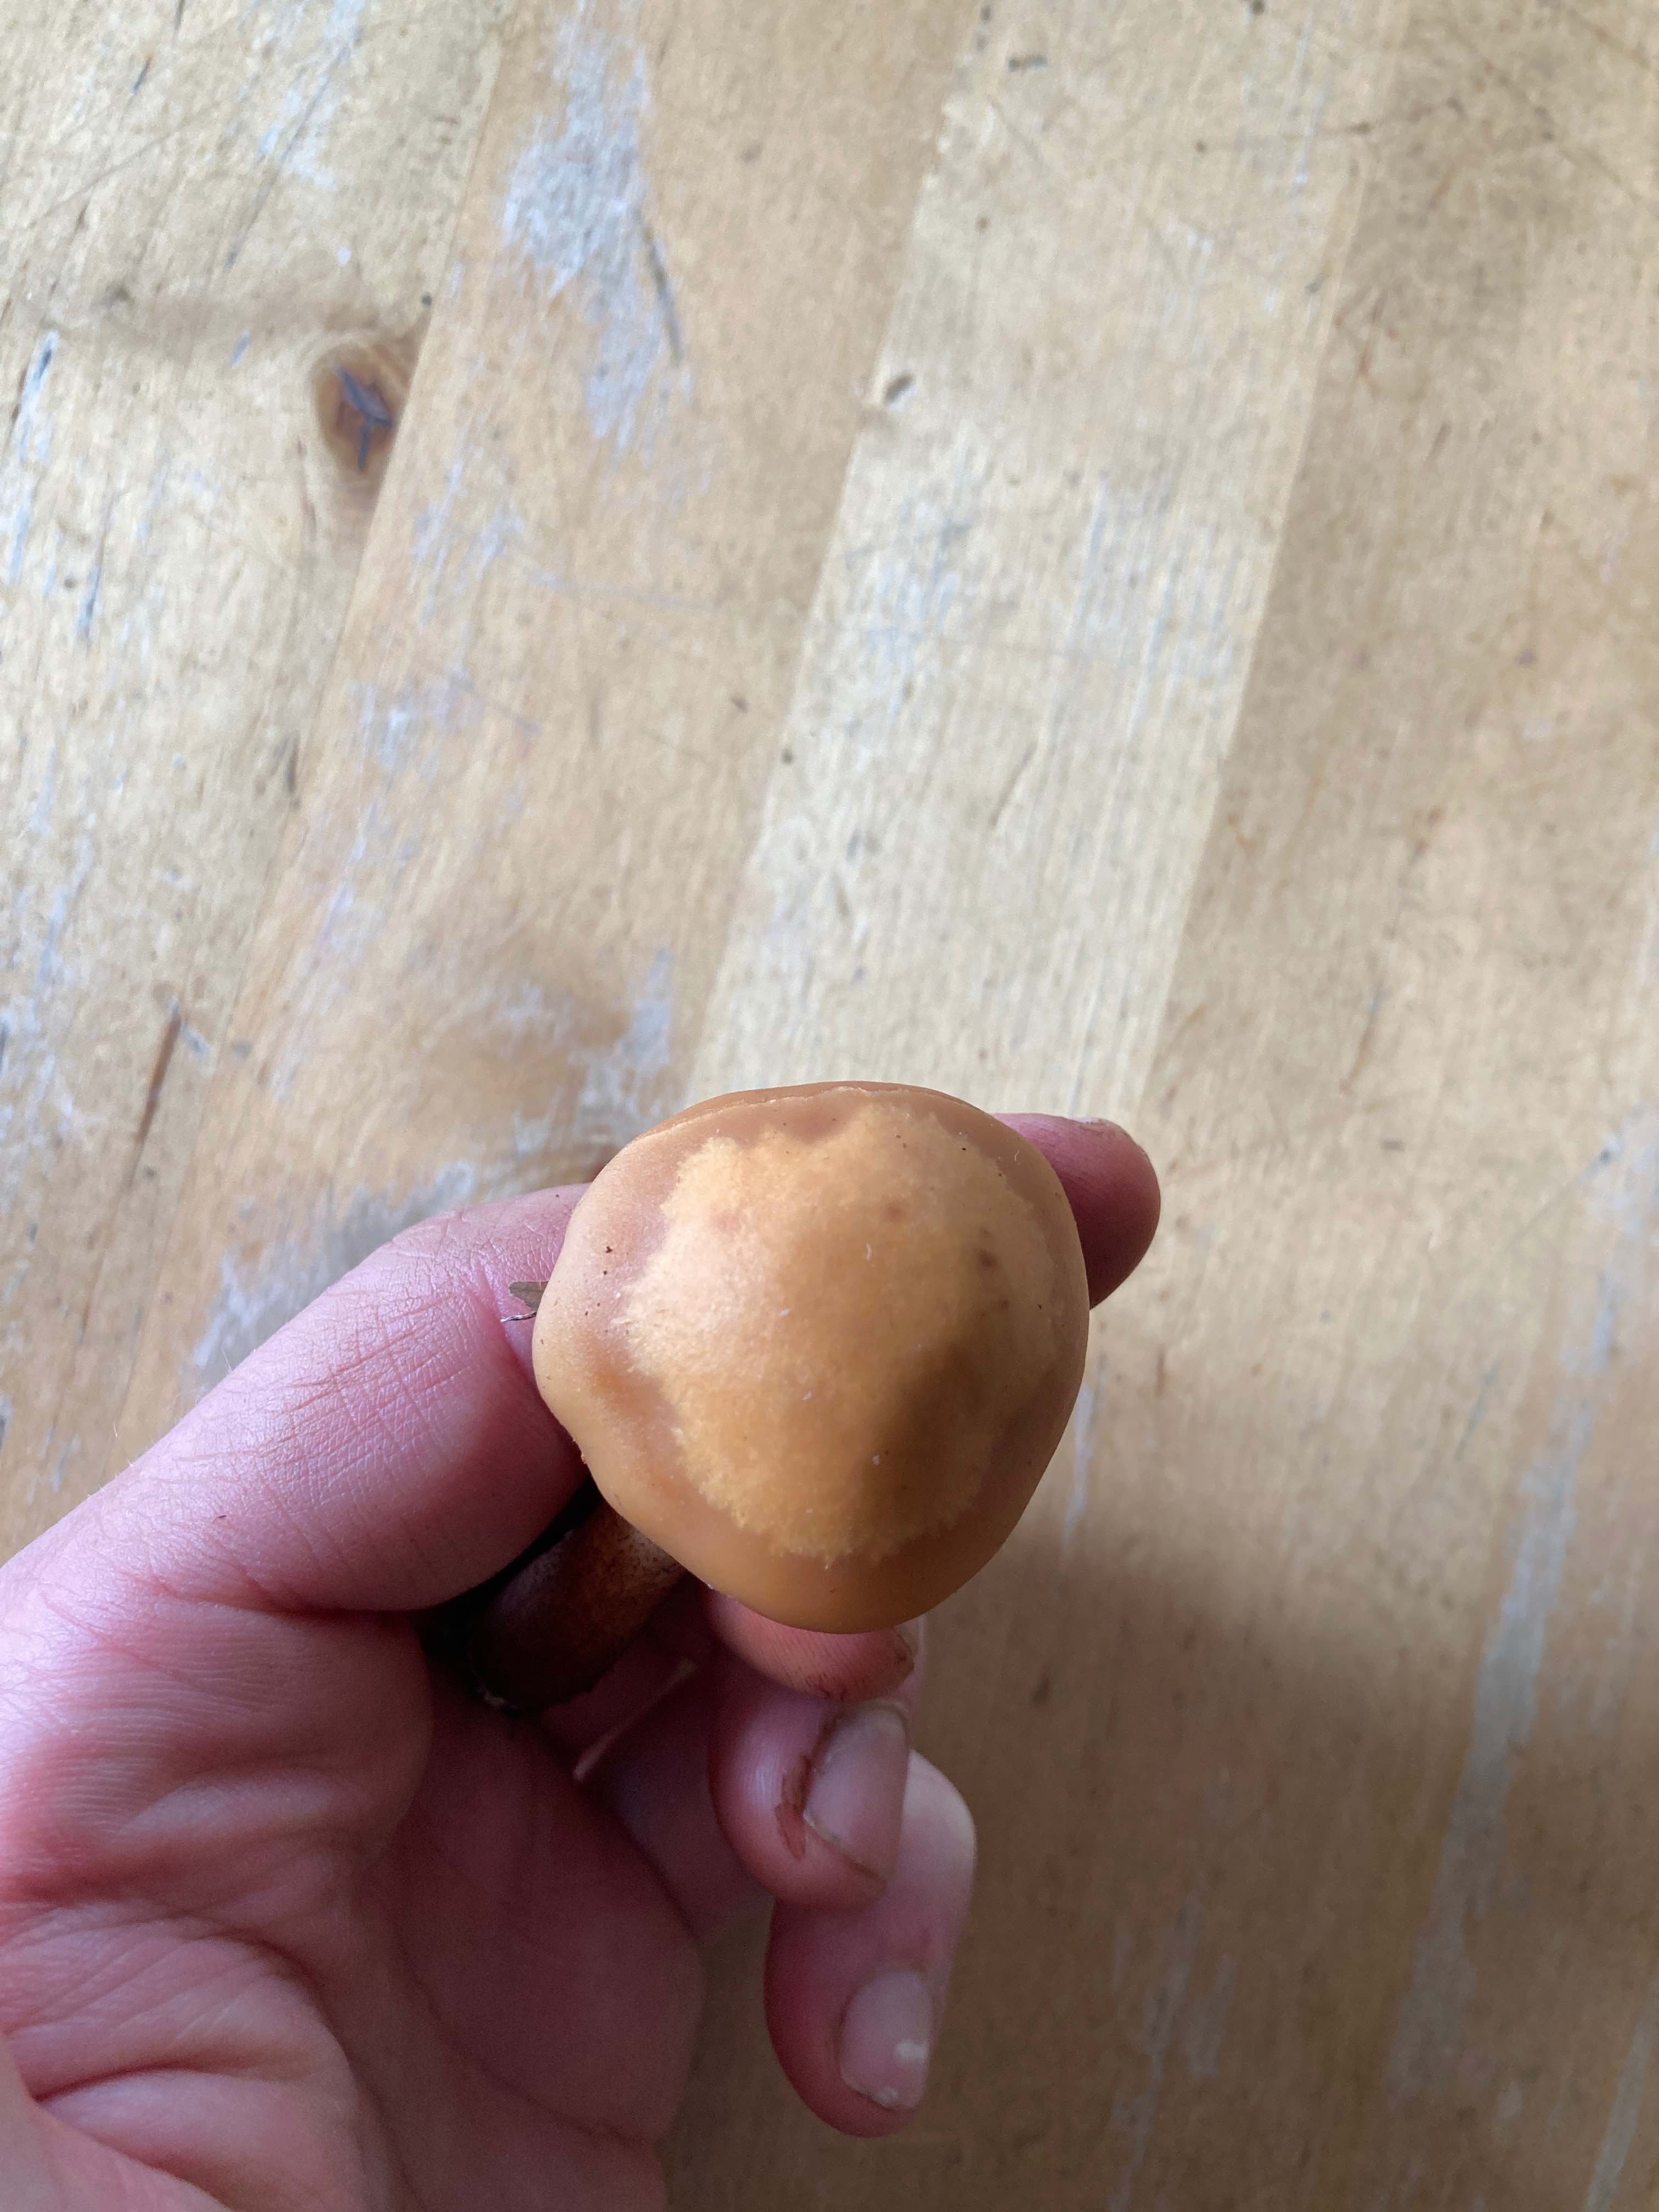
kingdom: Fungi
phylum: Basidiomycota
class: Agaricomycetes
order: Agaricales
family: Strophariaceae
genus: Kuehneromyces
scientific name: Kuehneromyces mutabilis
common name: foranderlig skælhat
